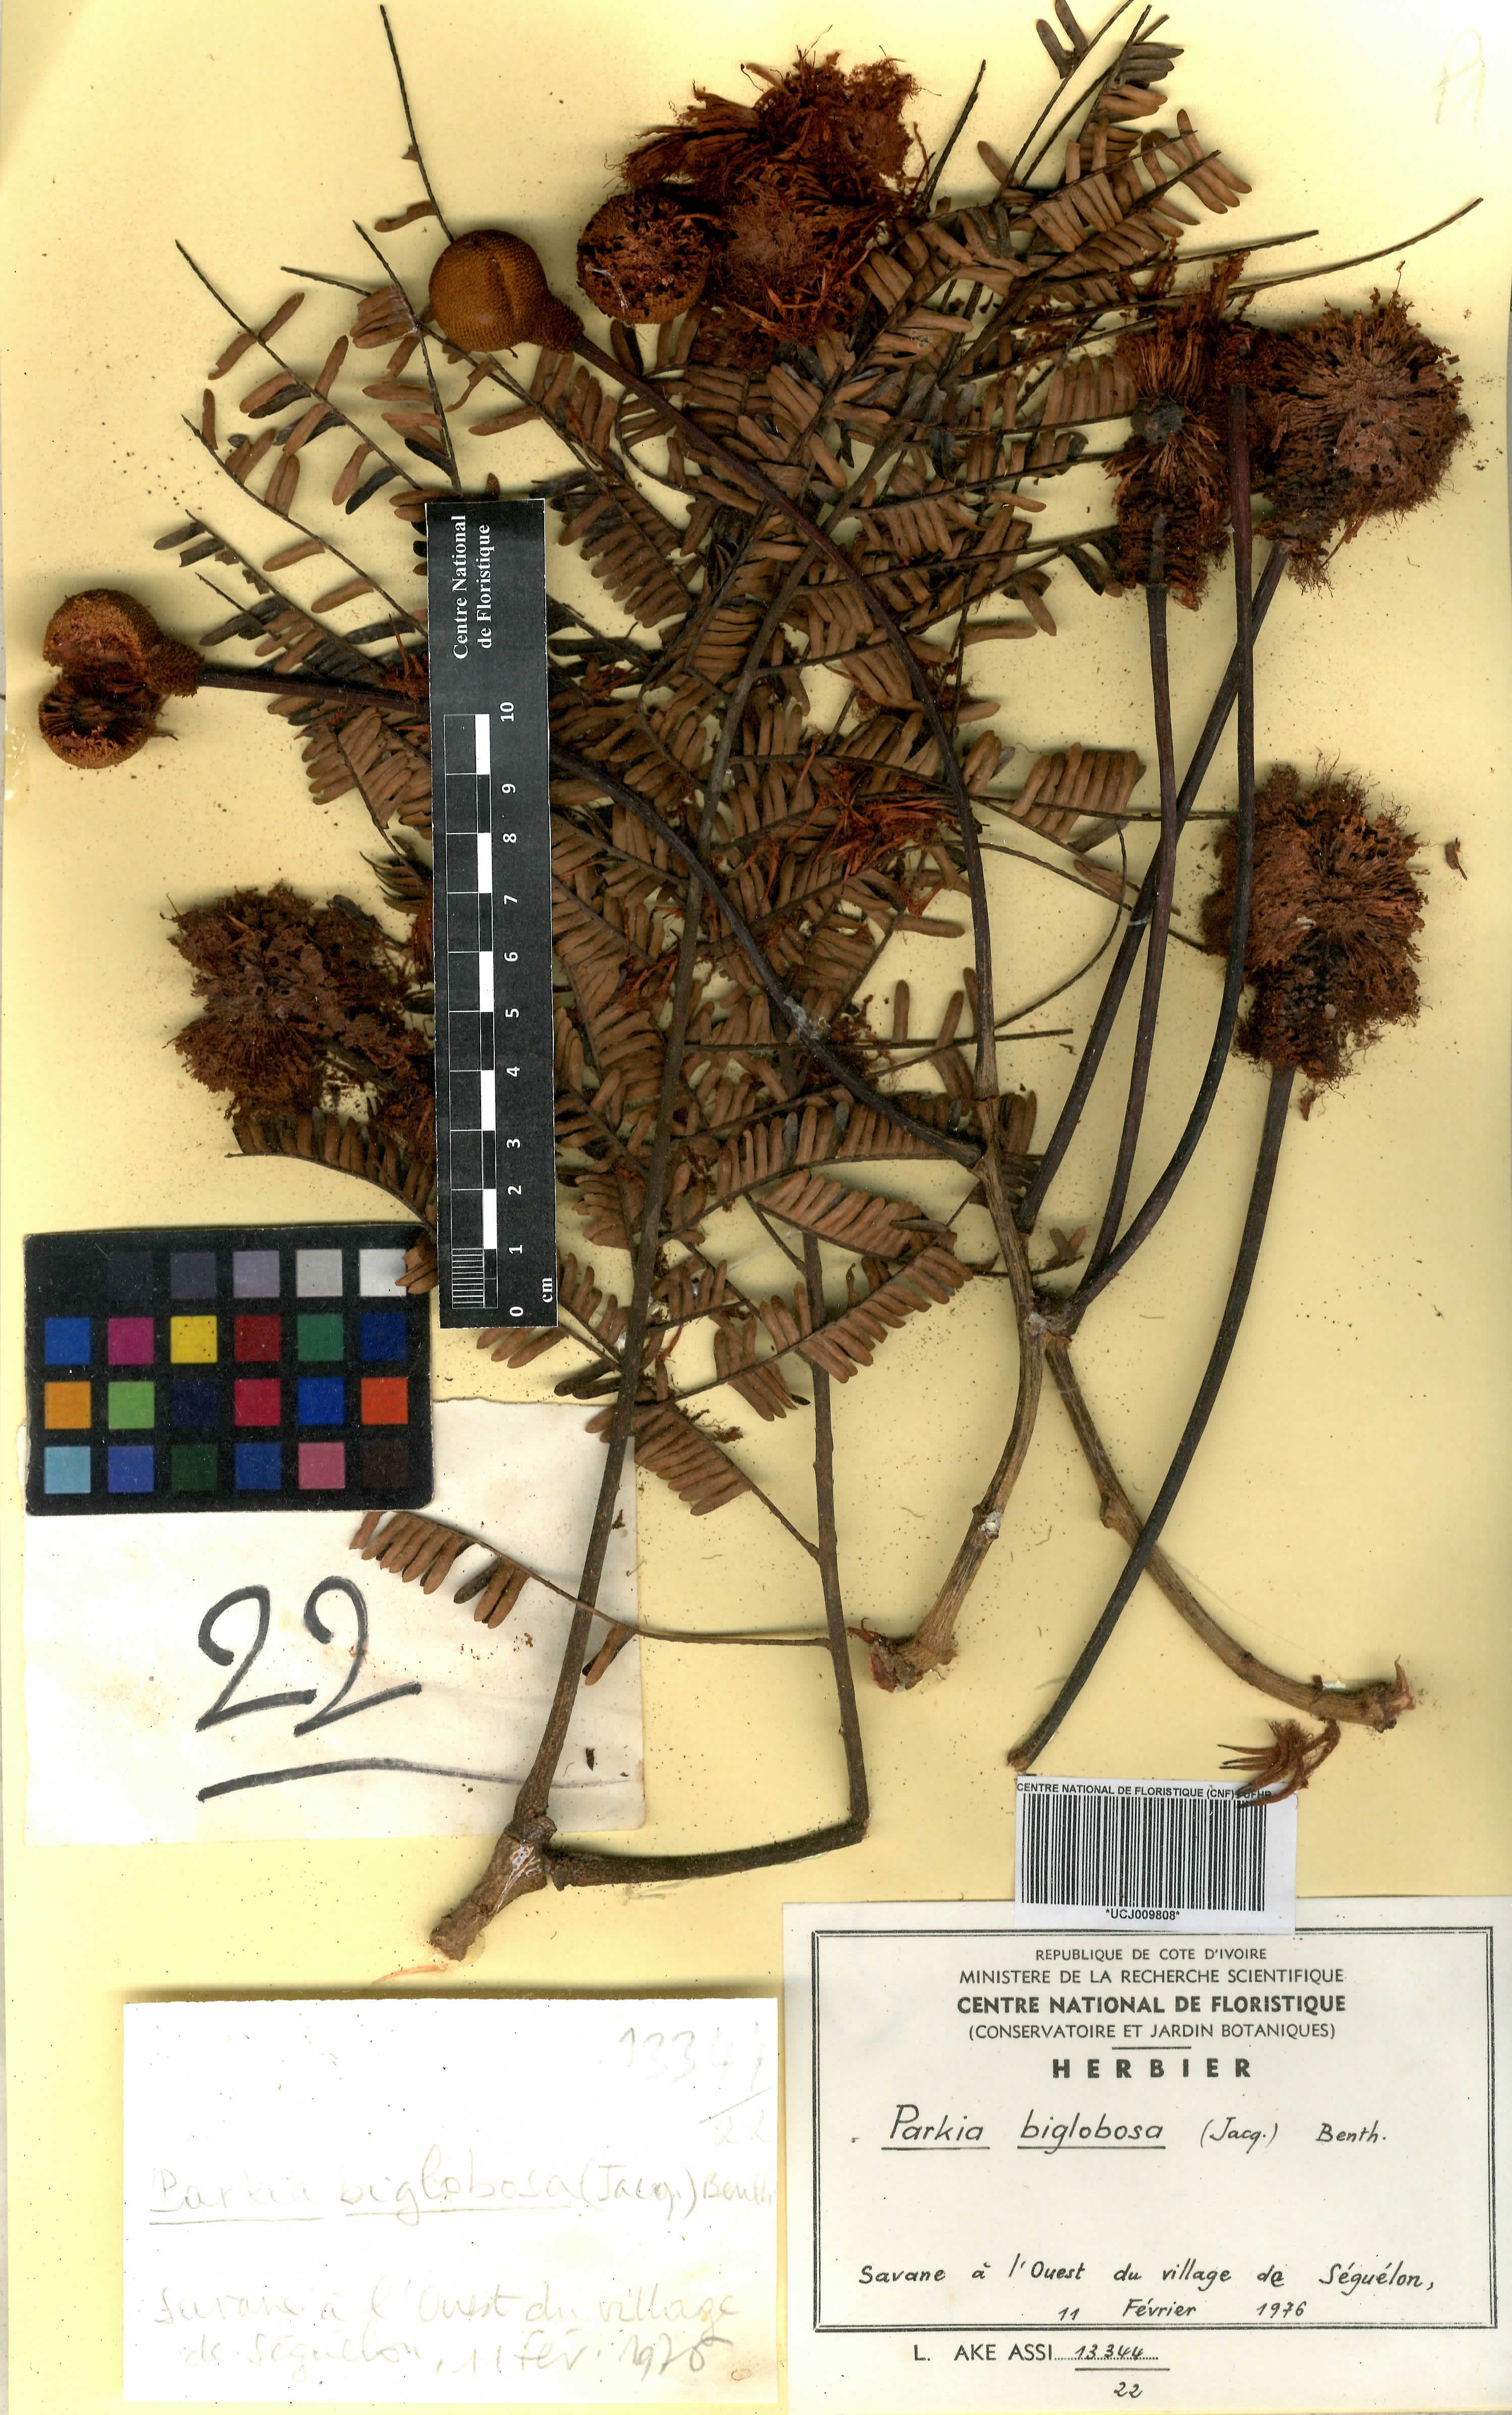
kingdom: Plantae
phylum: Tracheophyta
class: Magnoliopsida
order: Fabales
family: Fabaceae
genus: Parkia
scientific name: Parkia timoriana
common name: Legume
